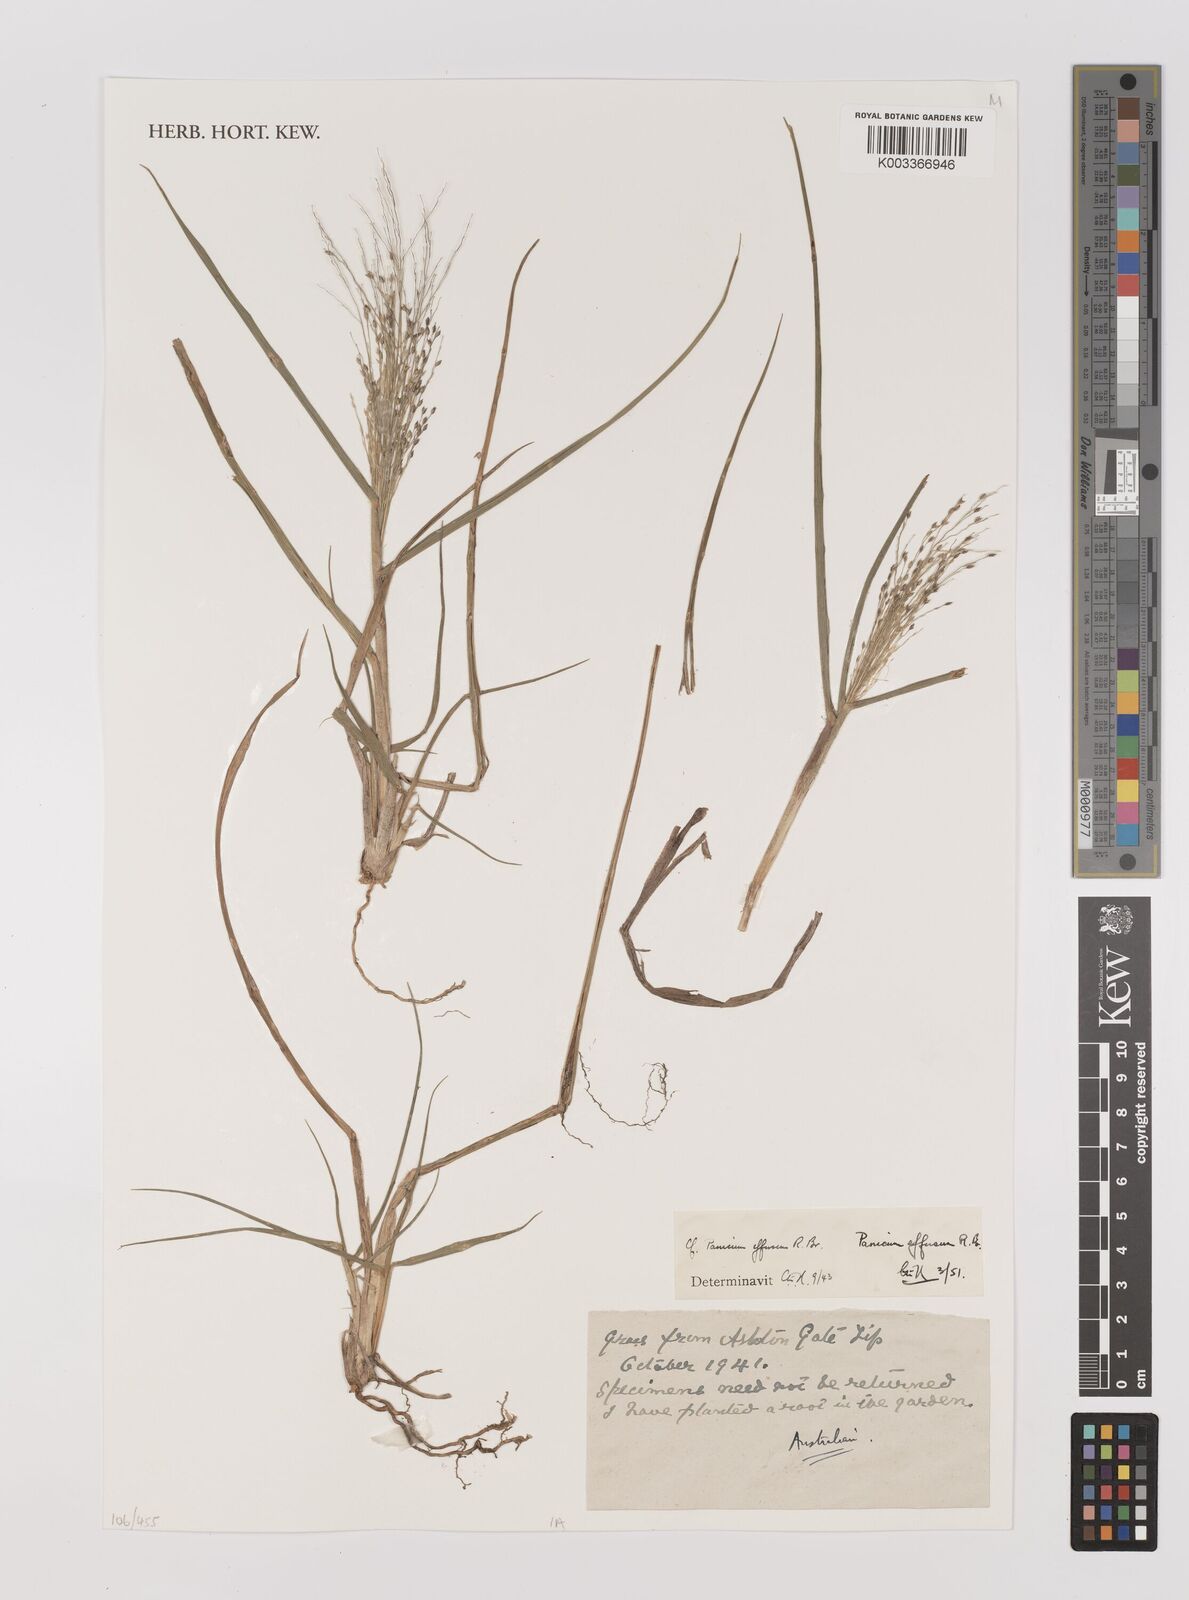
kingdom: Plantae
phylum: Tracheophyta
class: Liliopsida
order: Poales
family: Poaceae
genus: Panicum
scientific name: Panicum effusum
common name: Hairy panic grass
